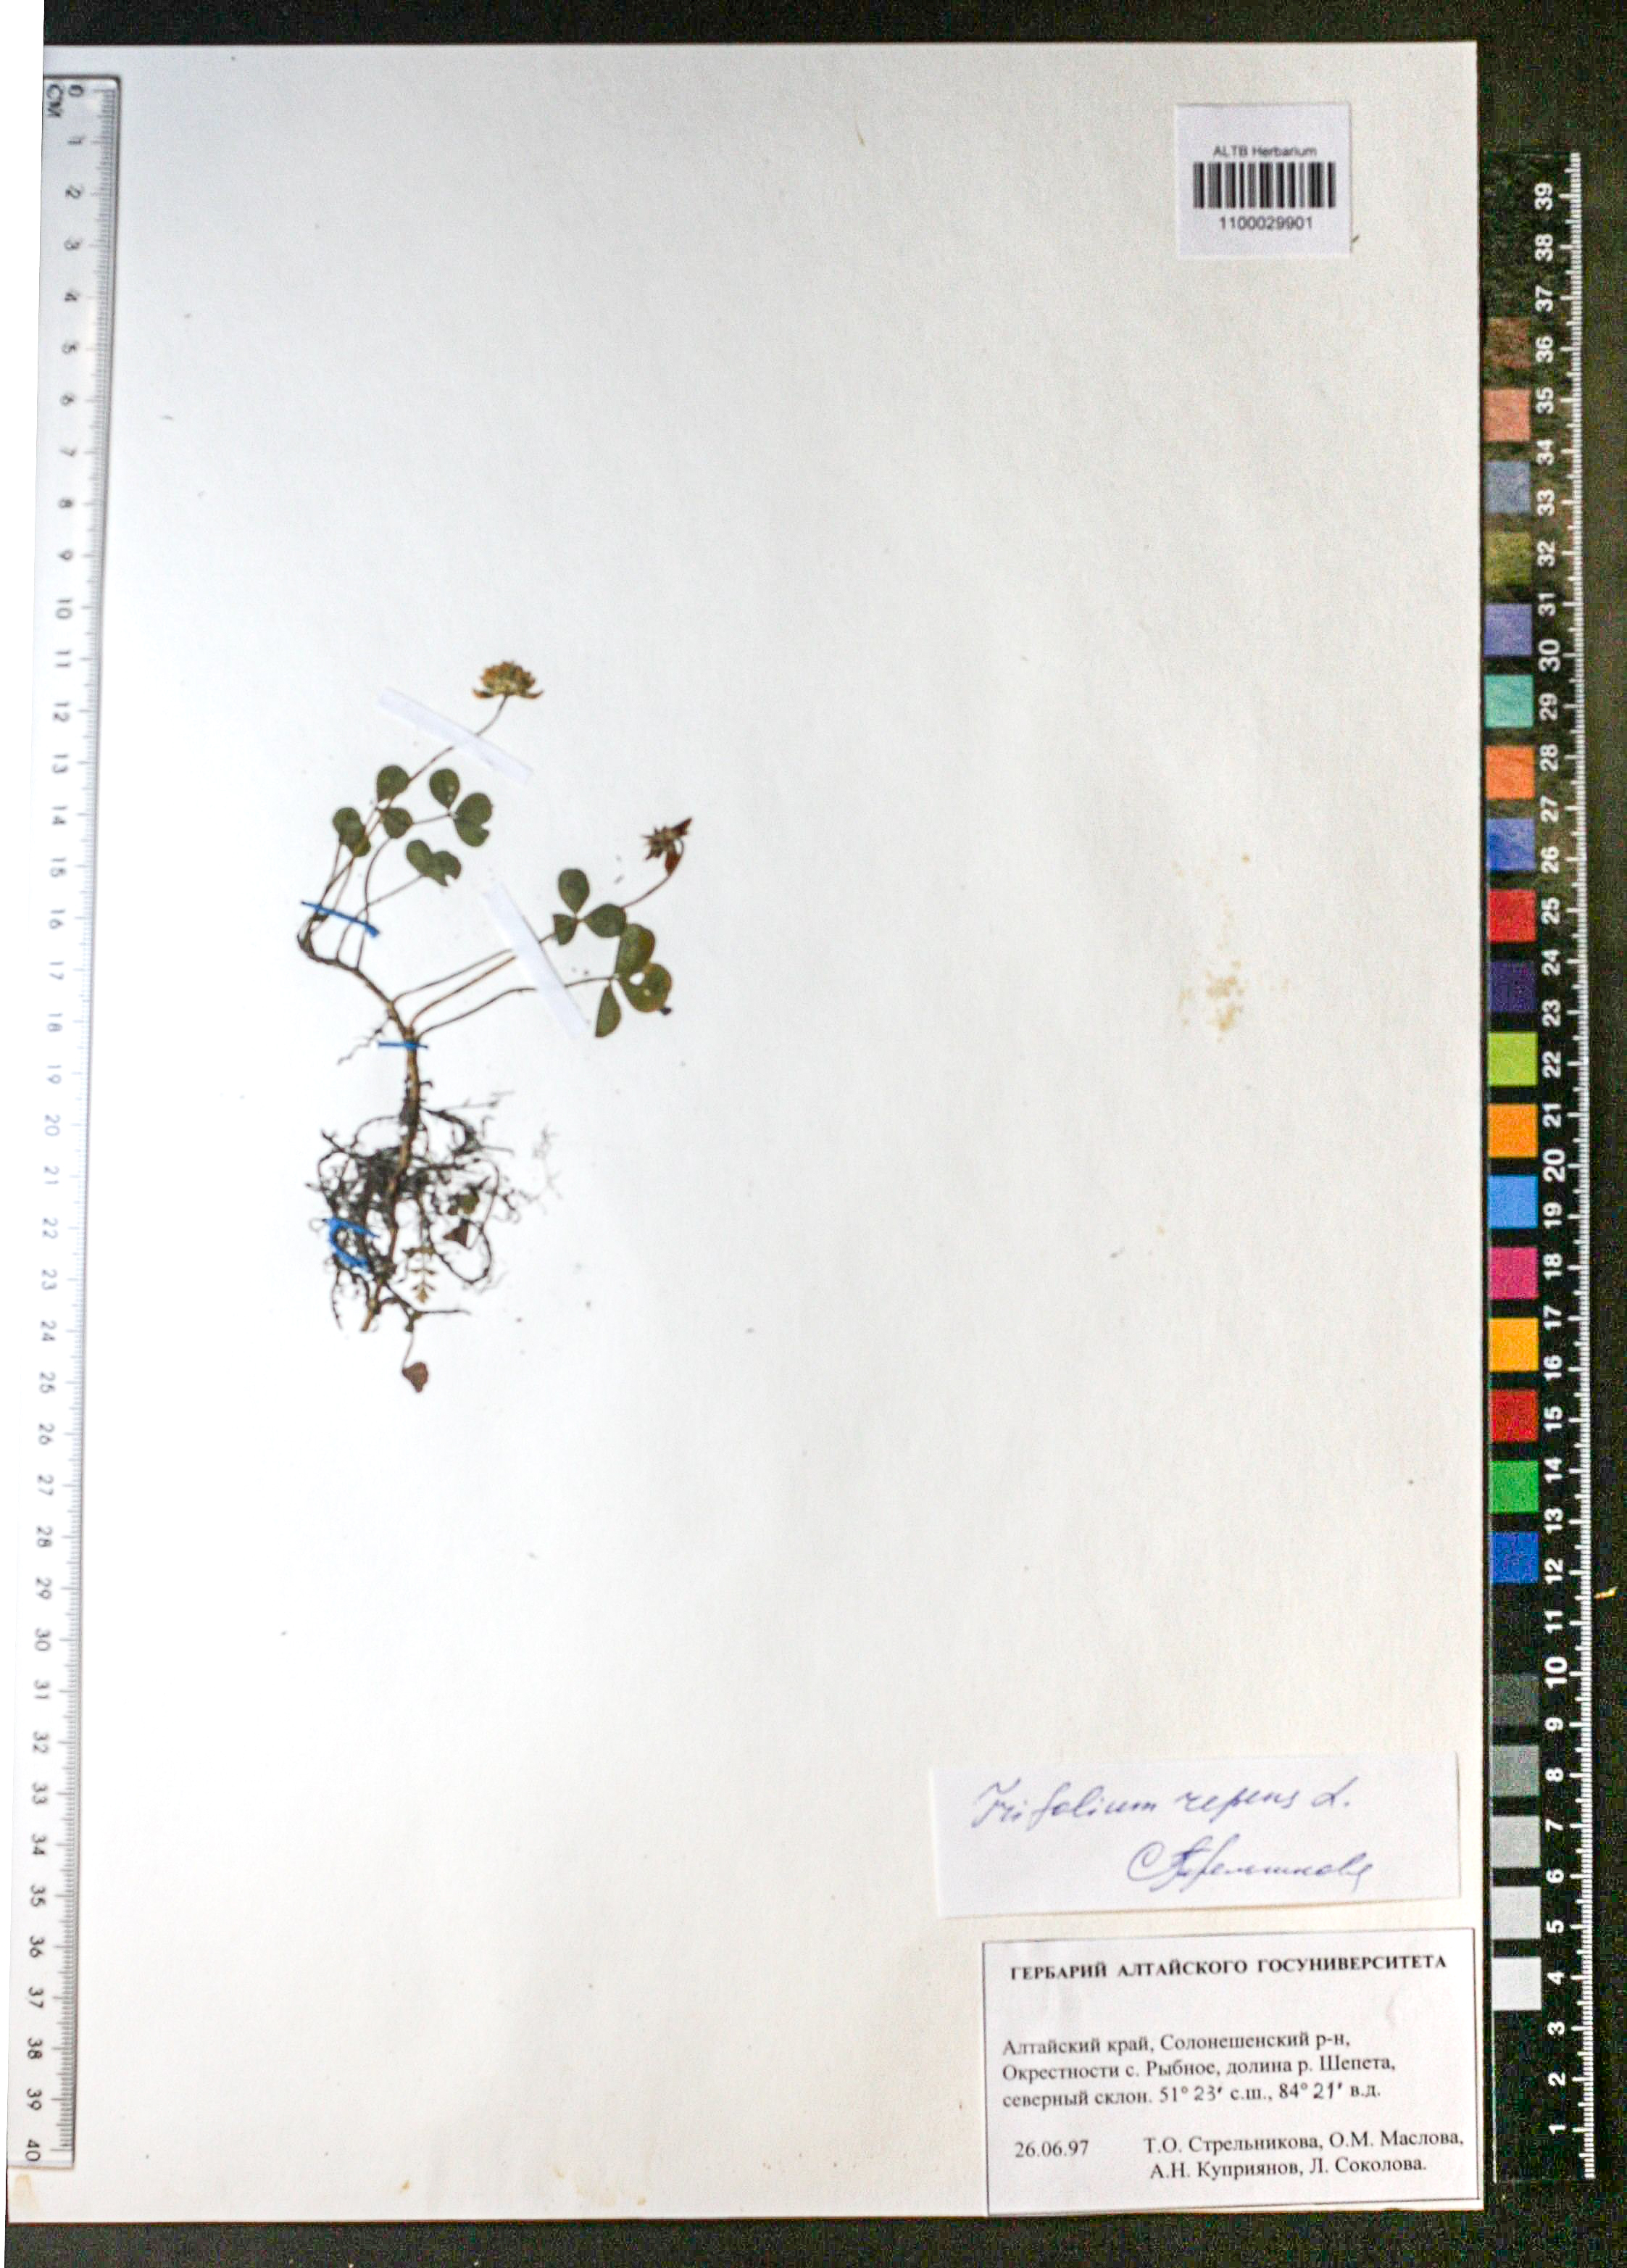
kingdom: Plantae
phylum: Tracheophyta
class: Magnoliopsida
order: Fabales
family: Fabaceae
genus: Trifolium
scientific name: Trifolium repens
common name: White clover
